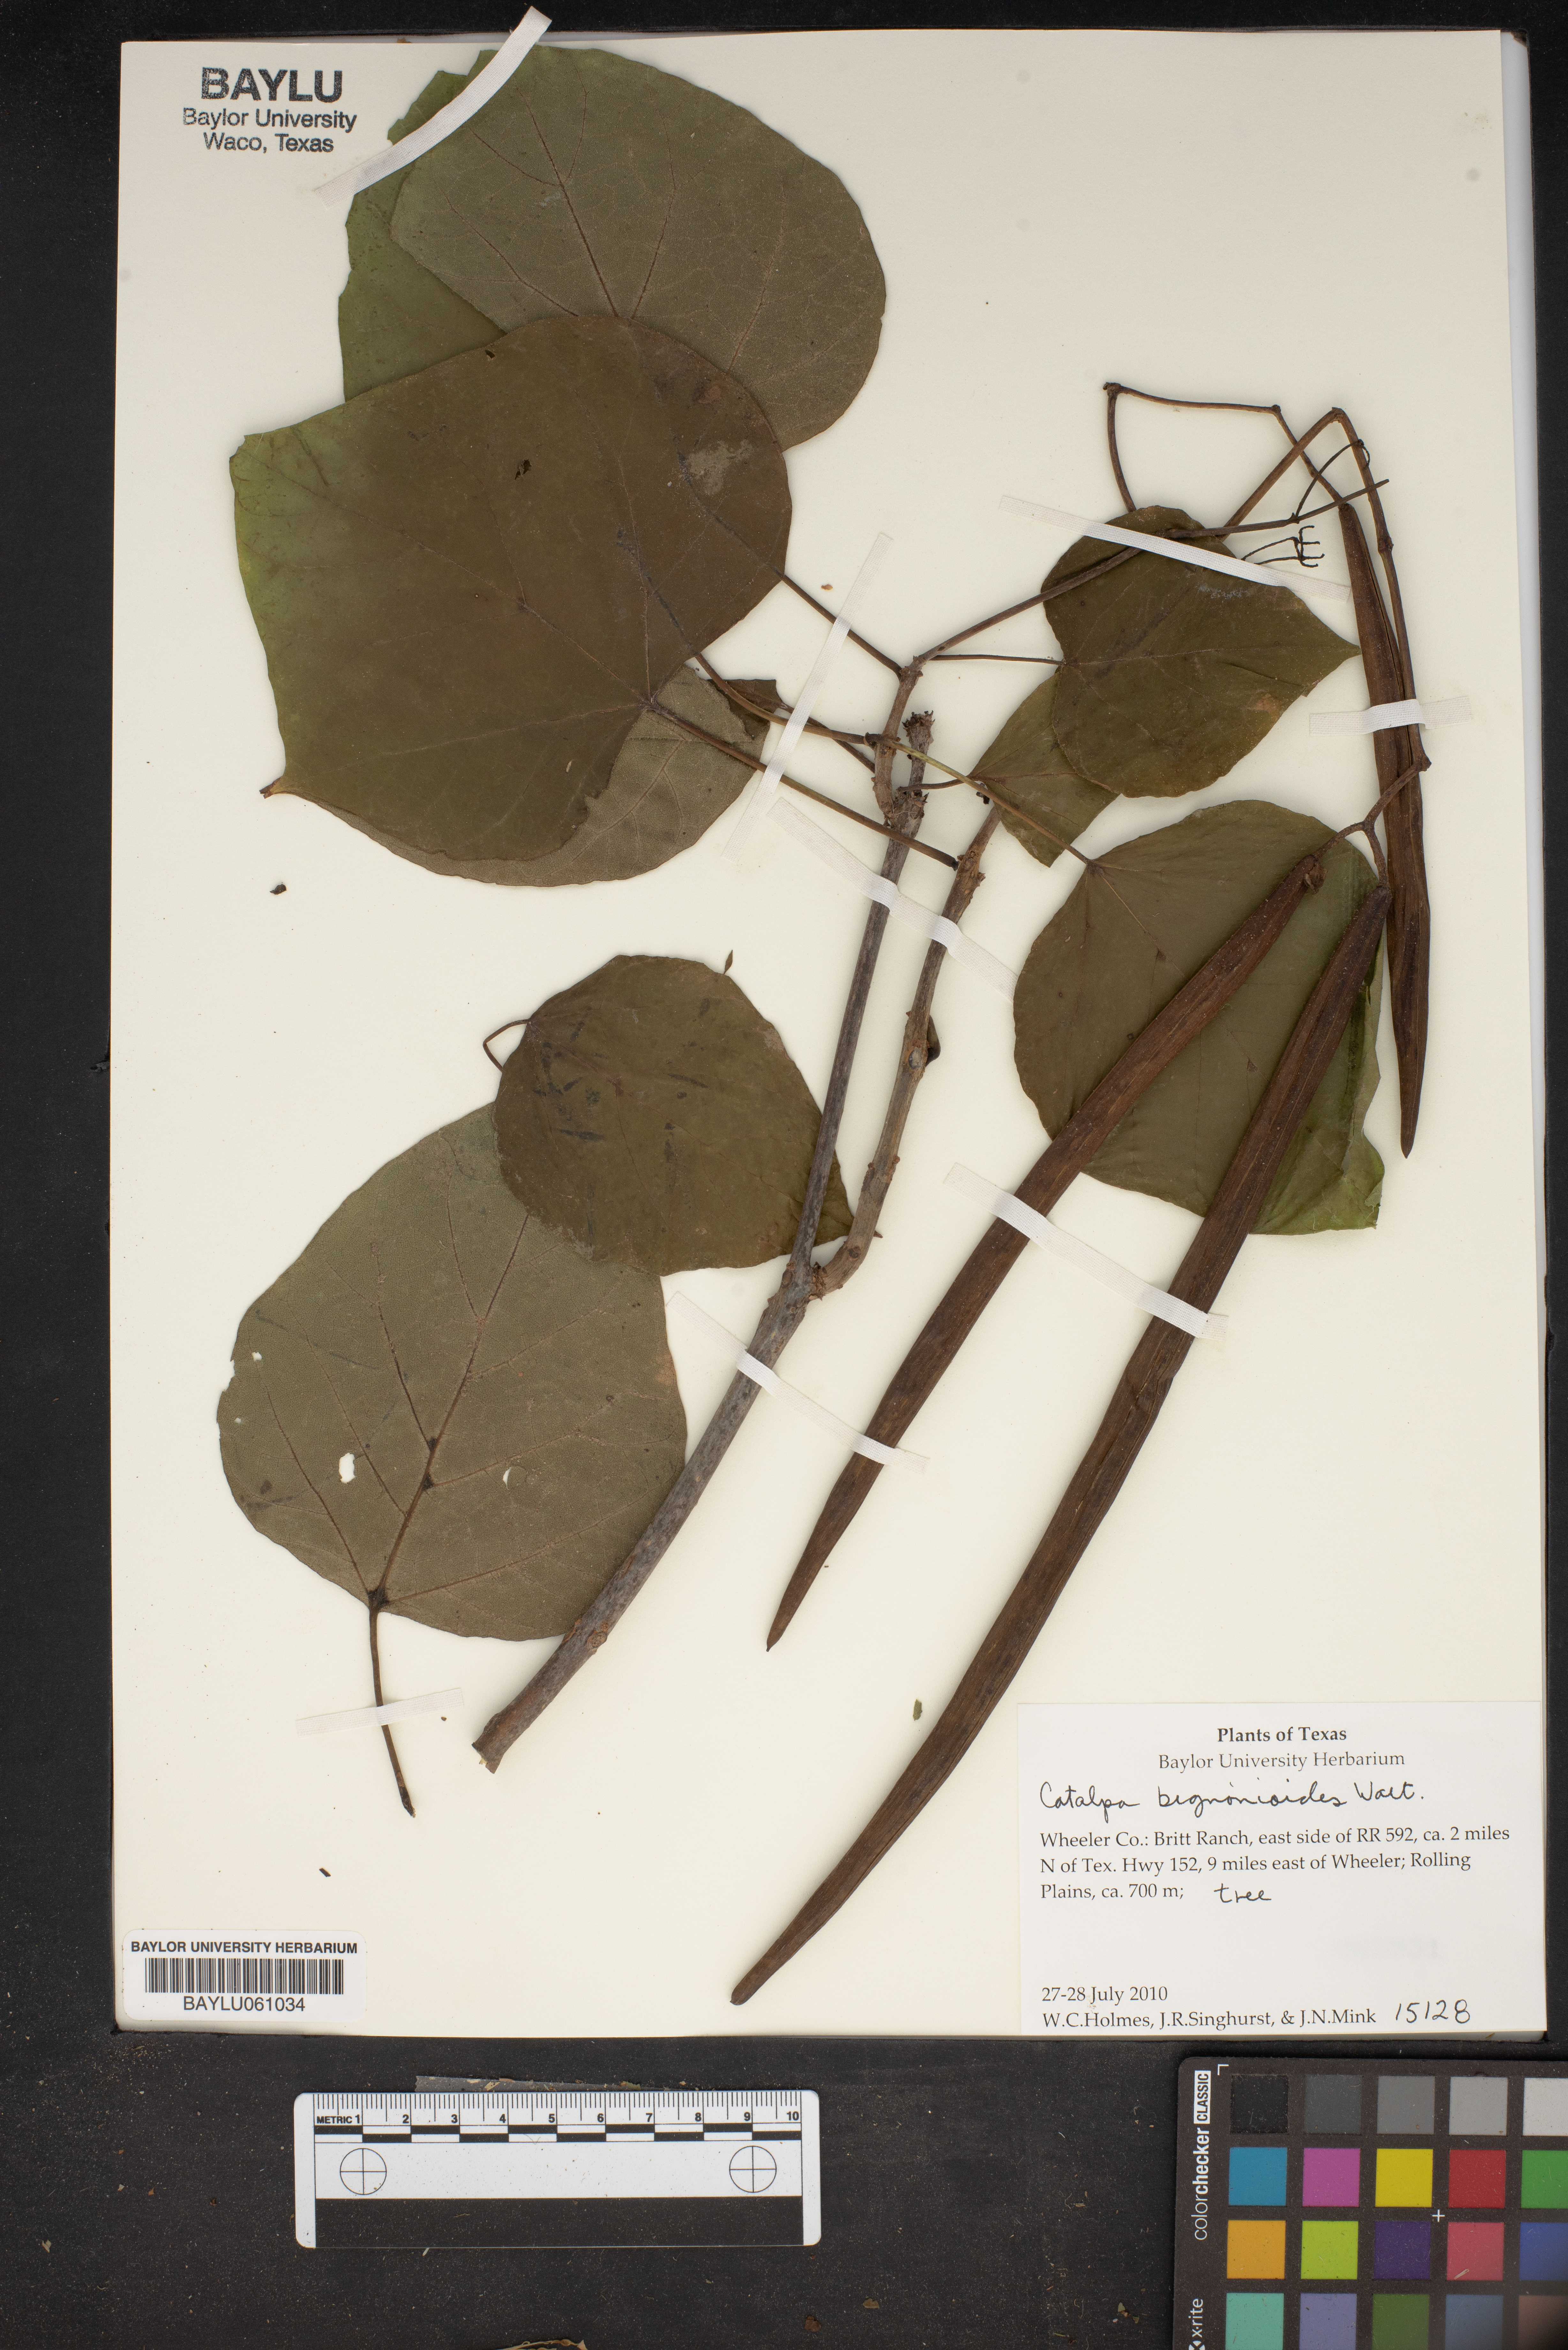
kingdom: Plantae
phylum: Tracheophyta
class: Magnoliopsida
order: Lamiales
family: Bignoniaceae
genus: Catalpa
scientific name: Catalpa bignonioides
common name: Southern catalpa
